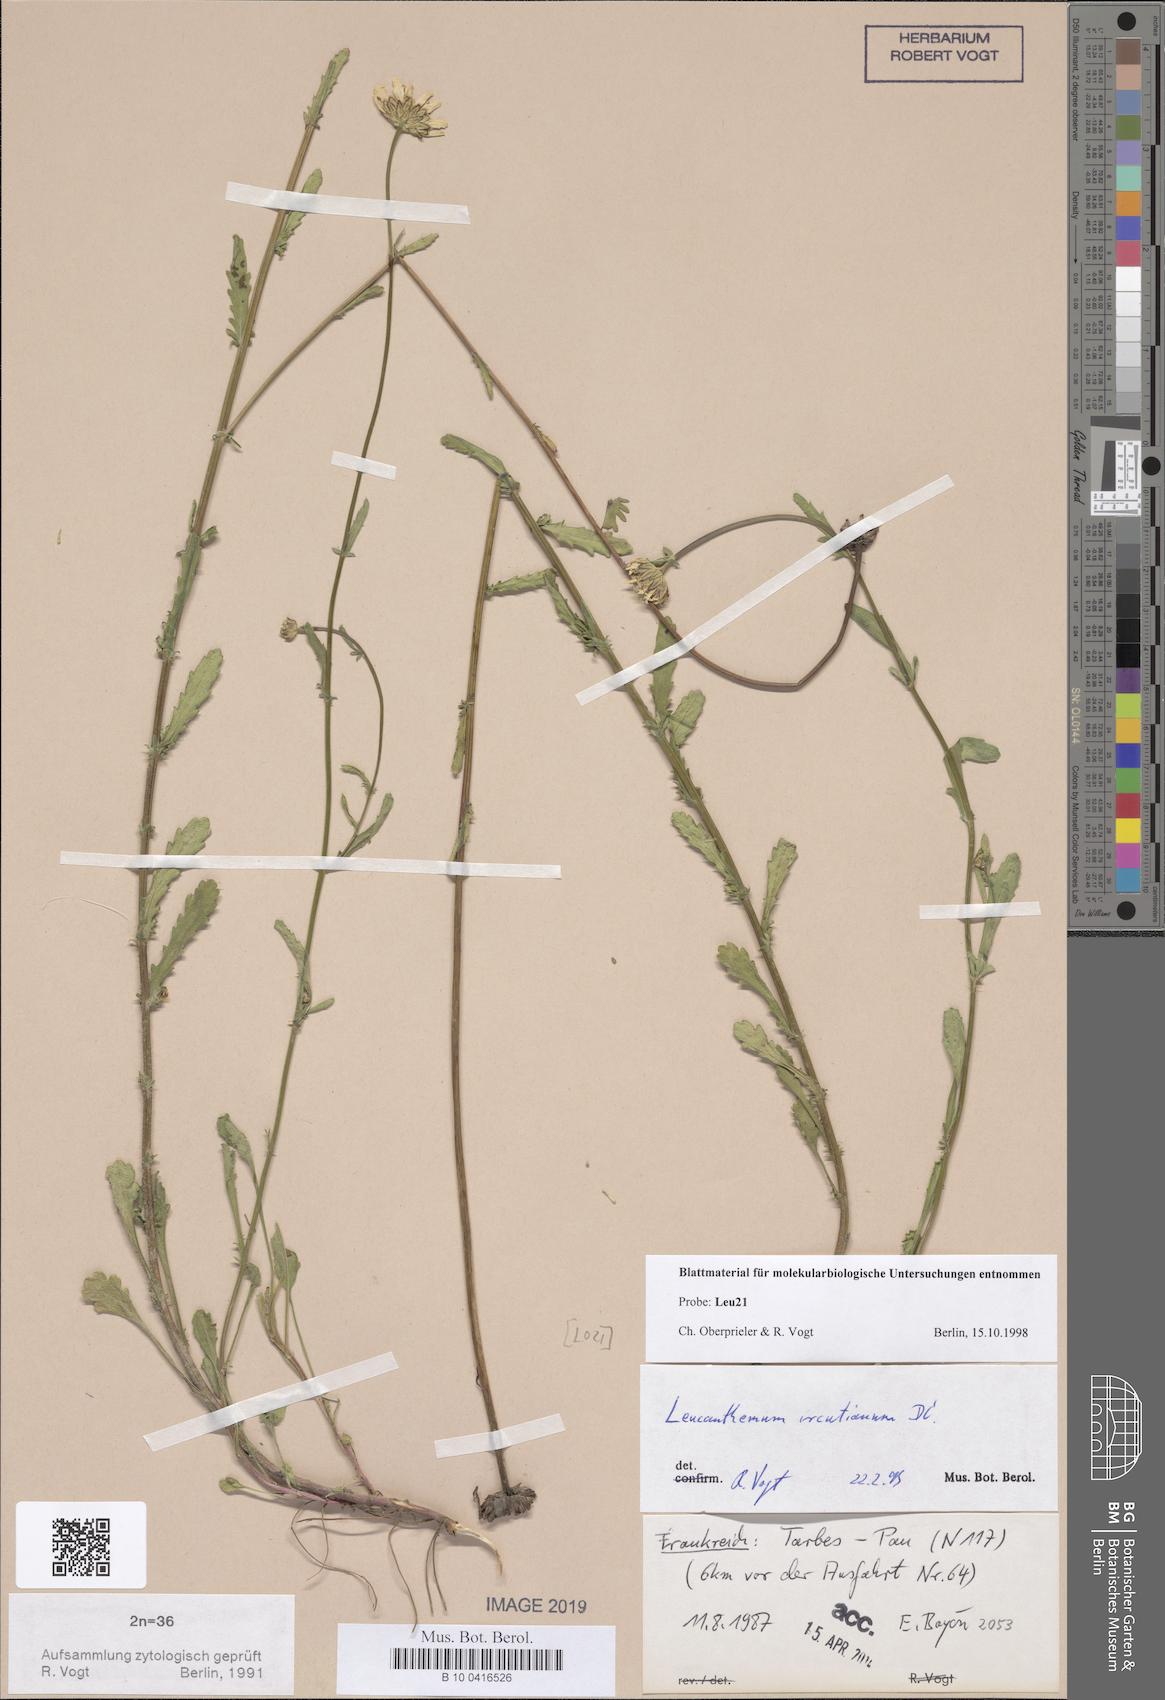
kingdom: Plantae
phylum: Tracheophyta
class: Magnoliopsida
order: Asterales
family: Asteraceae
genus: Leucanthemum
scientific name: Leucanthemum ircutianum
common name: Daisy
